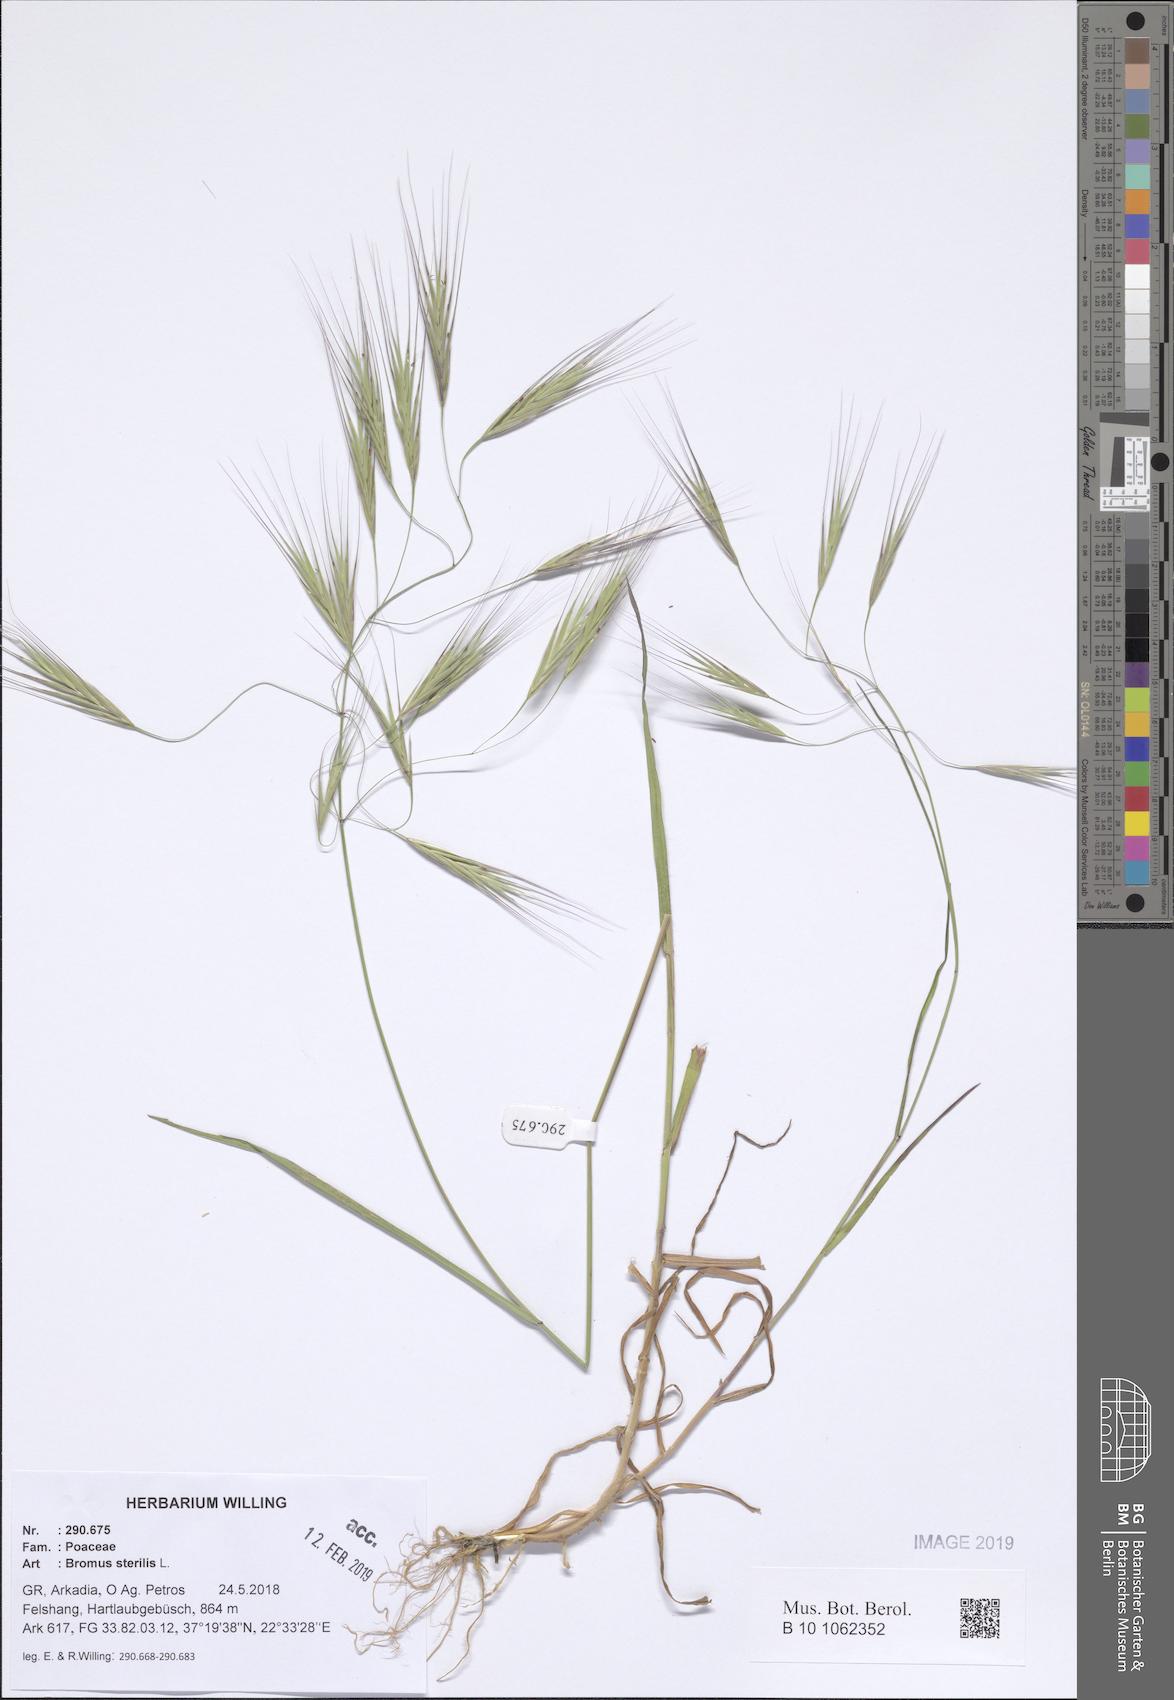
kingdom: Plantae
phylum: Tracheophyta
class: Liliopsida
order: Poales
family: Poaceae
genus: Bromus
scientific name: Bromus sterilis
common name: Poverty brome
